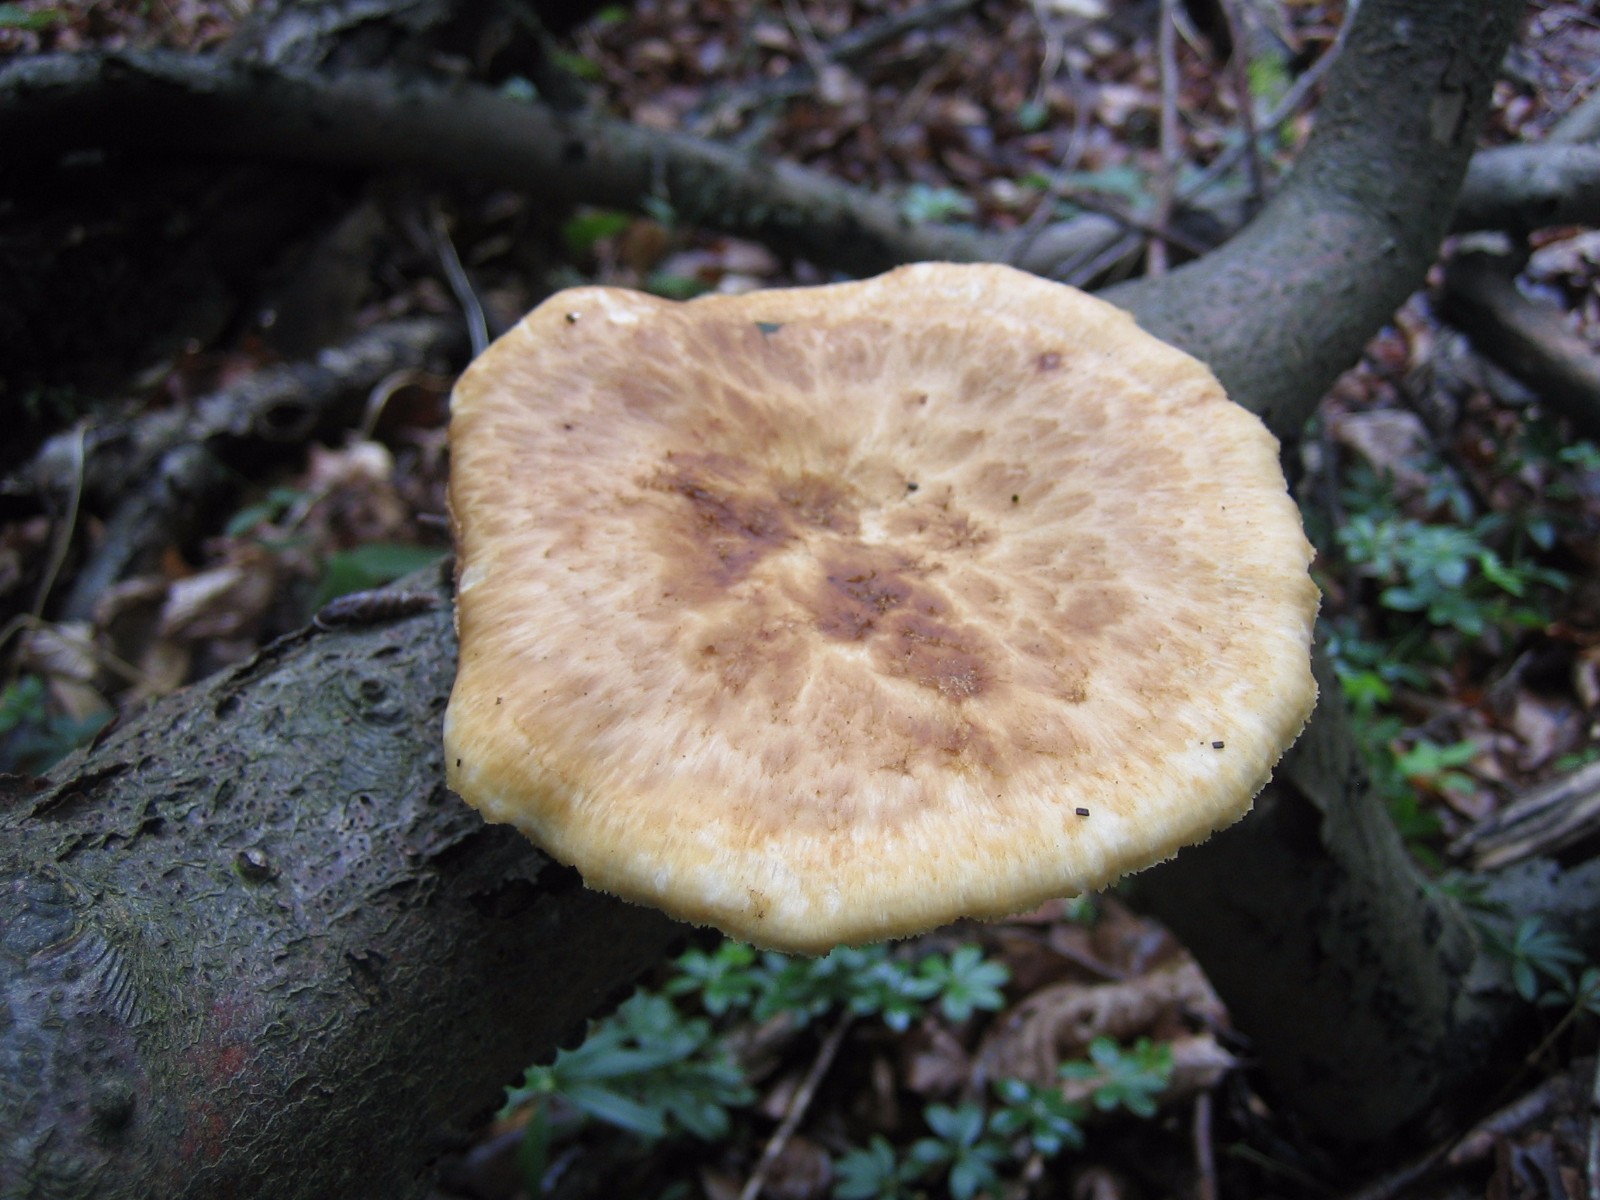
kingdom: Fungi
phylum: Basidiomycota
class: Agaricomycetes
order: Polyporales
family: Polyporaceae
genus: Polyporus
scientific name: Polyporus tuberaster
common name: knoldet stilkporesvamp
